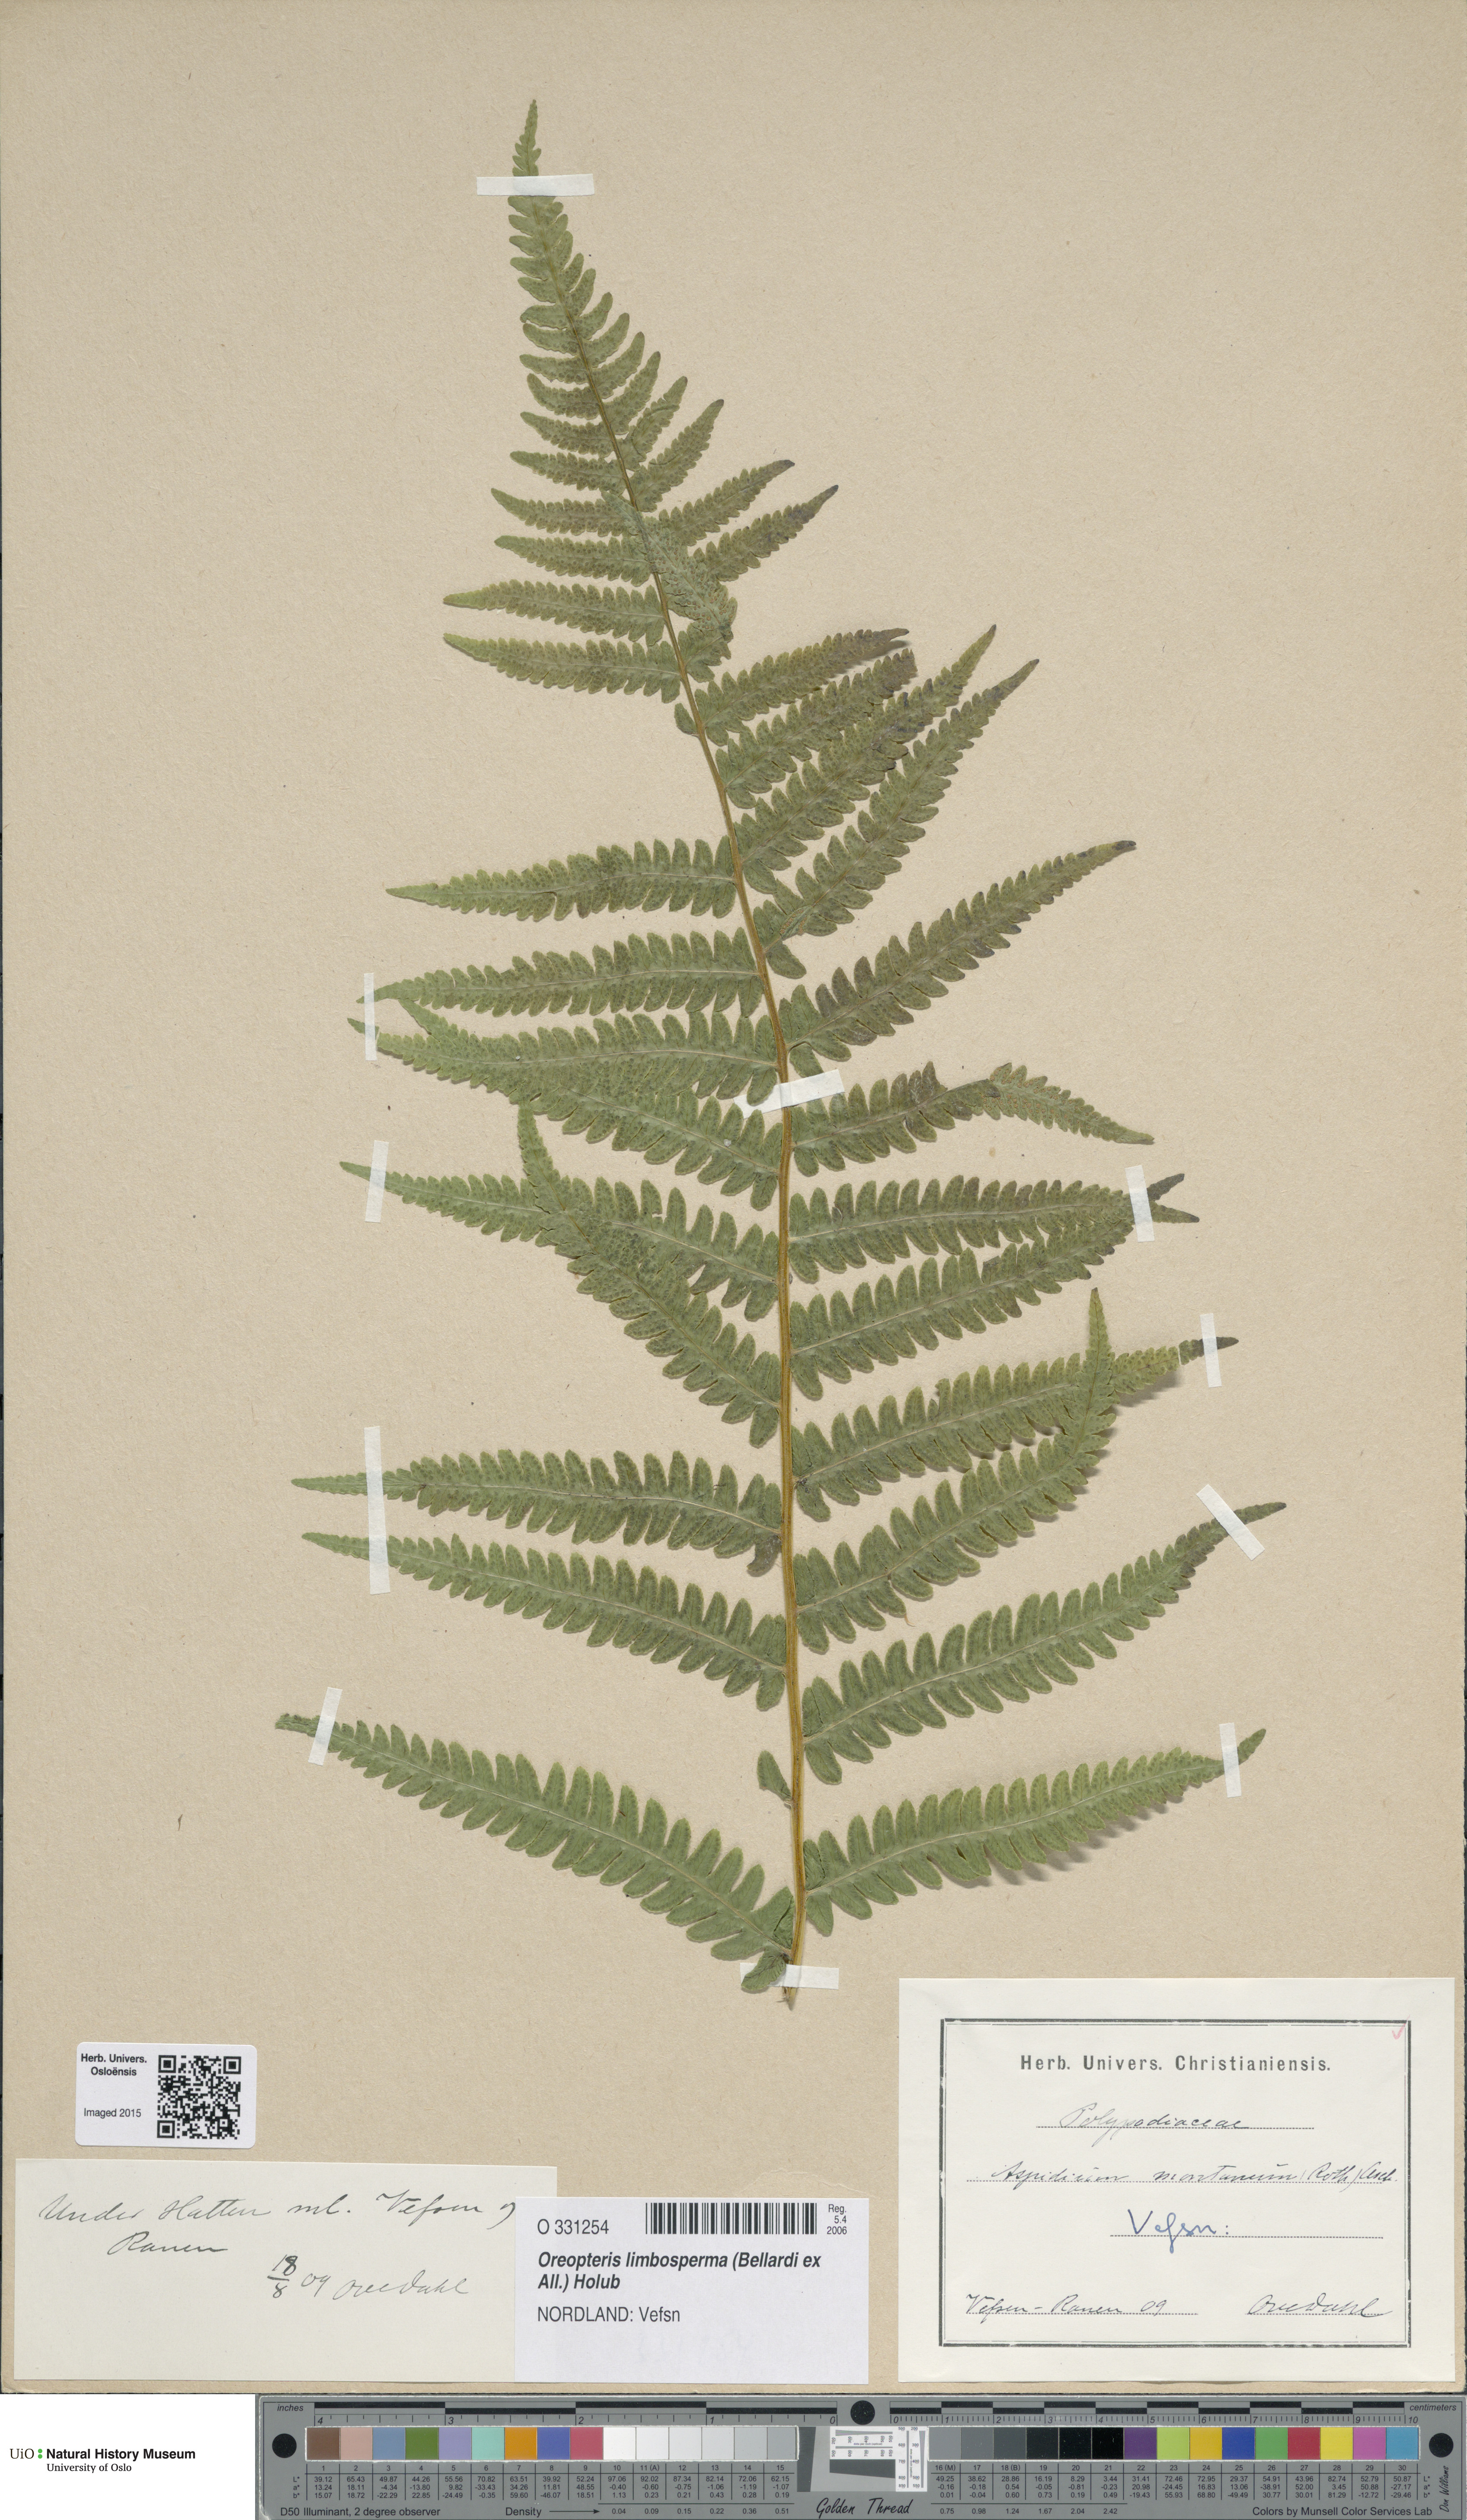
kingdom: Plantae
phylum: Tracheophyta
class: Polypodiopsida
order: Polypodiales
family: Thelypteridaceae
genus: Oreopteris
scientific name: Oreopteris limbosperma
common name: Lemon-scented fern
